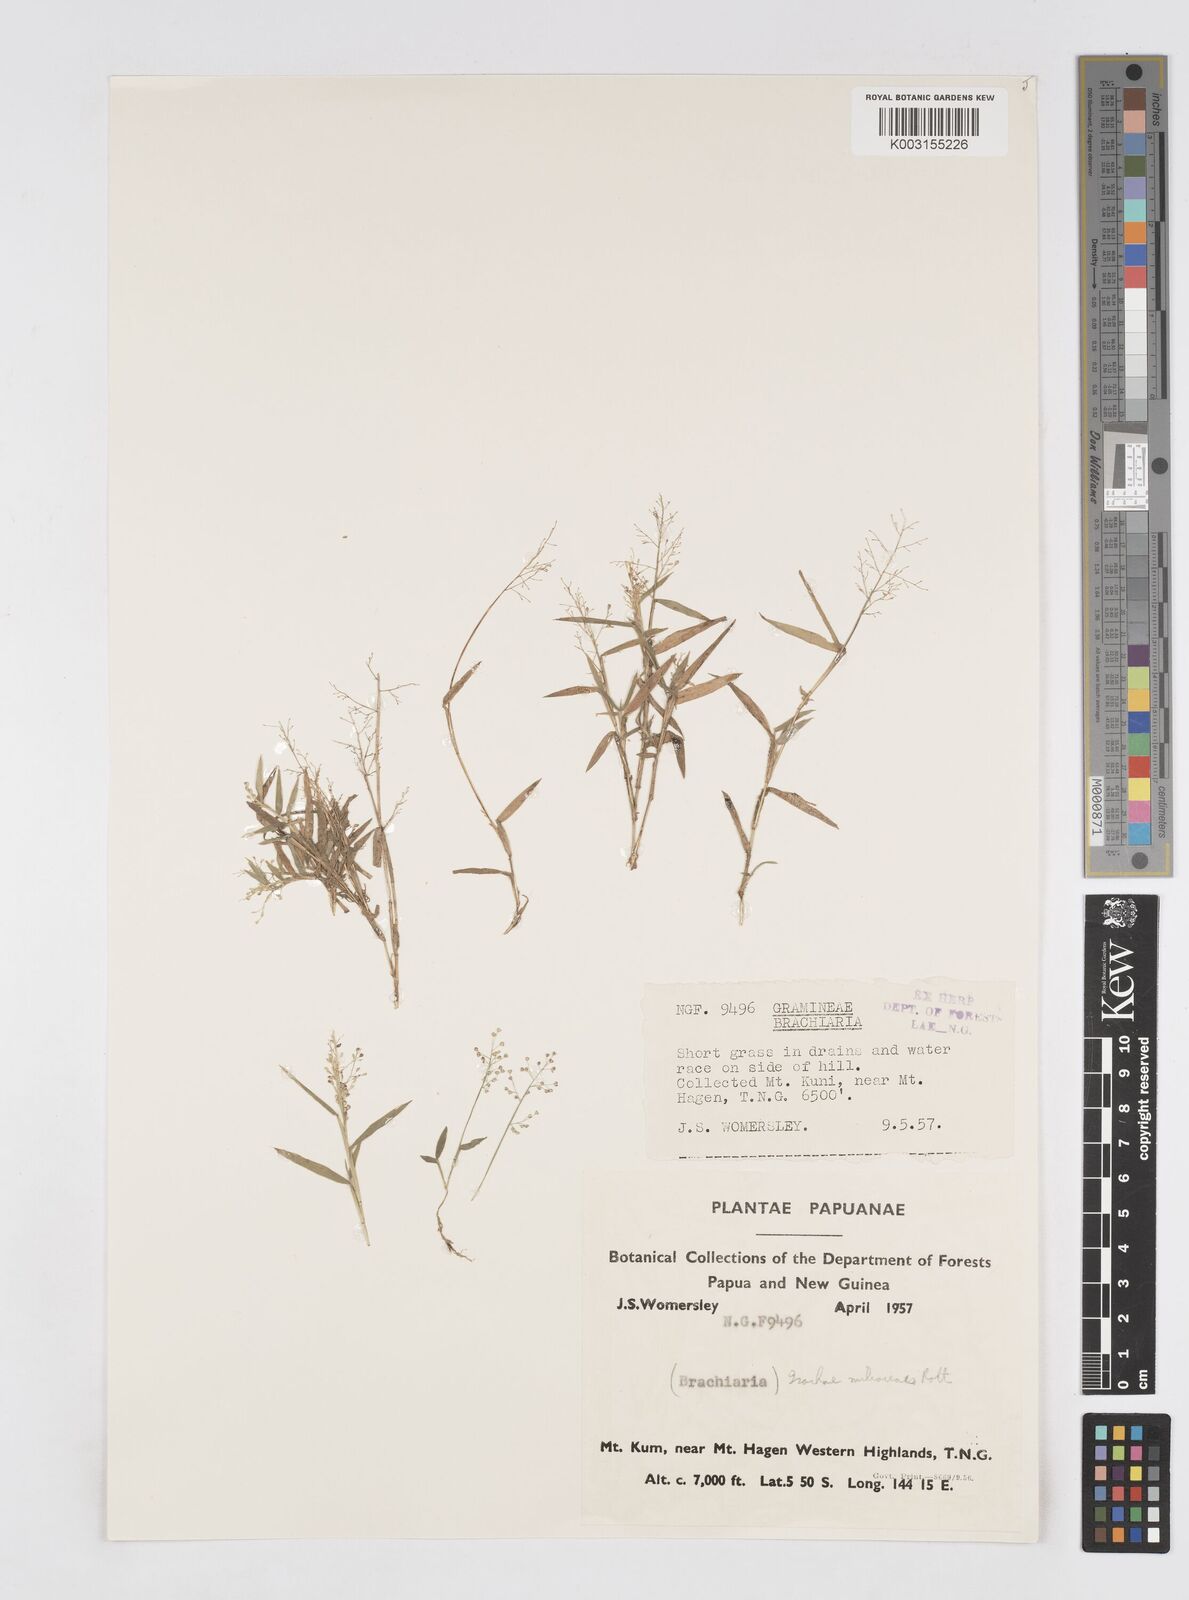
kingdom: Plantae
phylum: Tracheophyta
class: Liliopsida
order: Poales
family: Poaceae
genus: Isachne
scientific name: Isachne globosa
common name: Swamp millet
